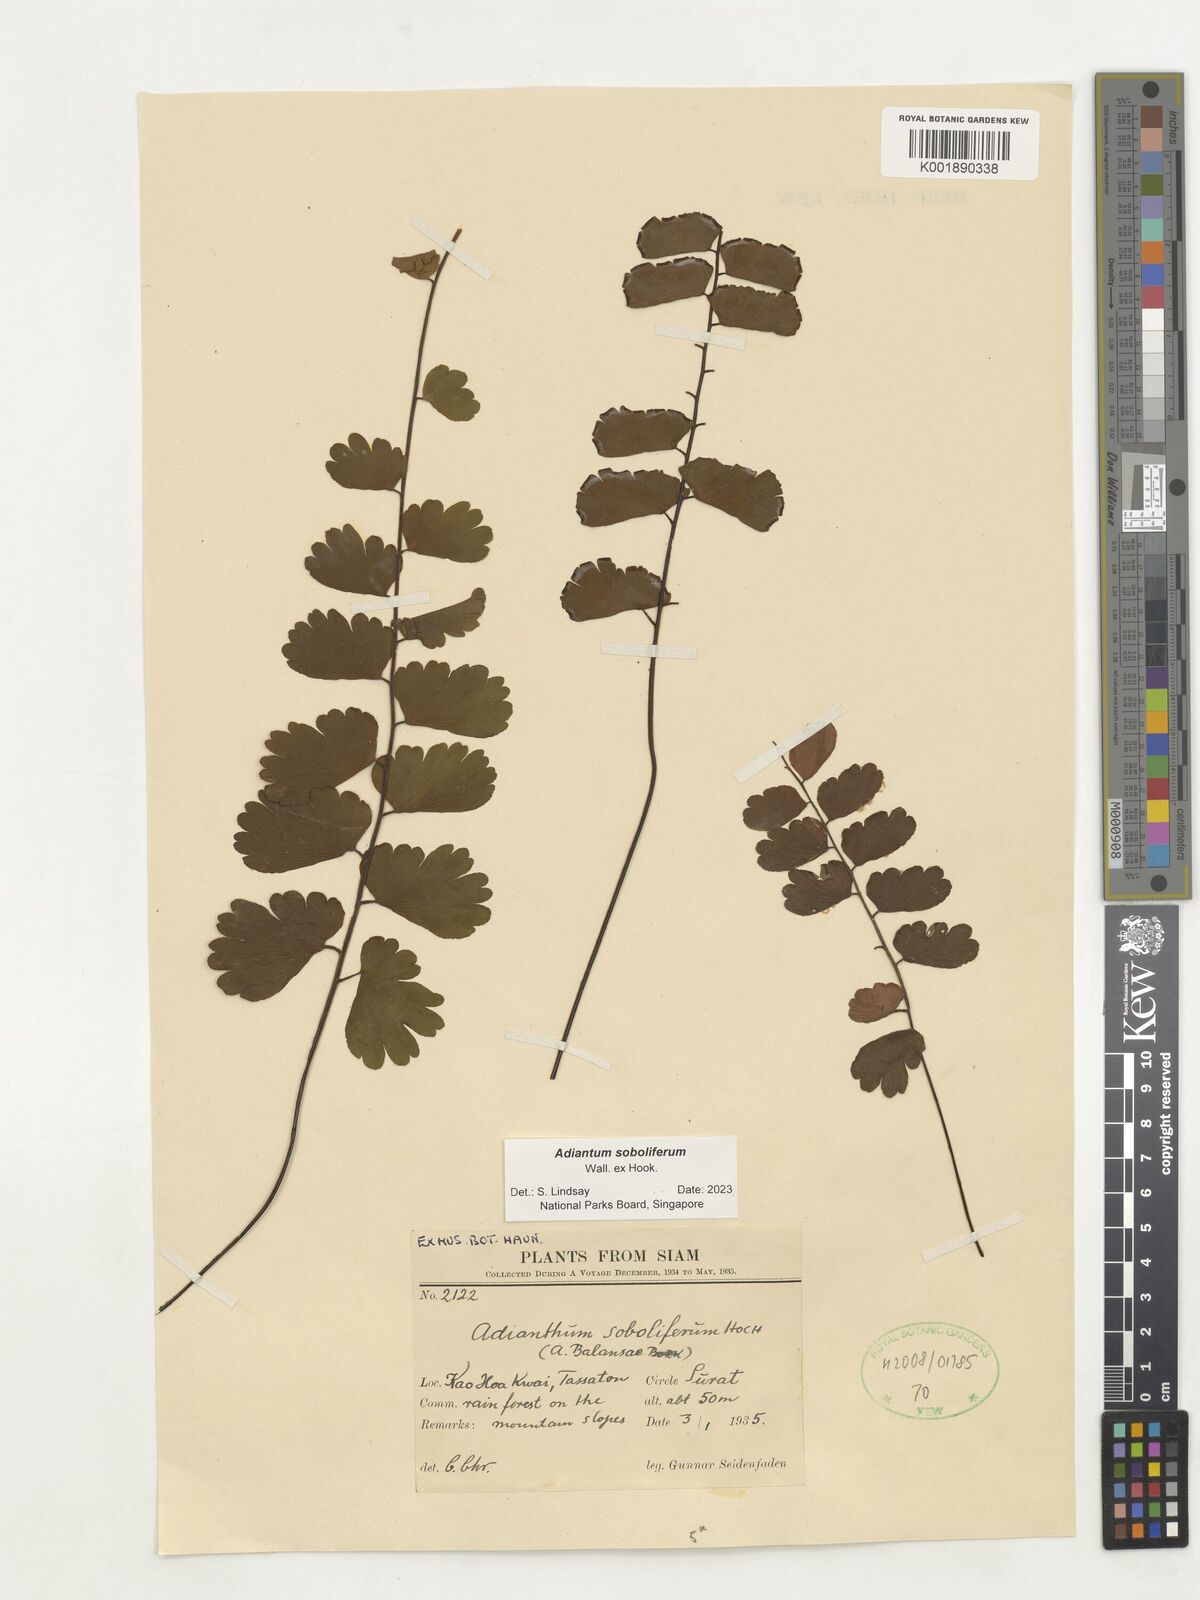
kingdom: Plantae
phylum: Tracheophyta
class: Polypodiopsida
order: Polypodiales
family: Pteridaceae
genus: Adiantum
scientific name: Adiantum soboliferum
